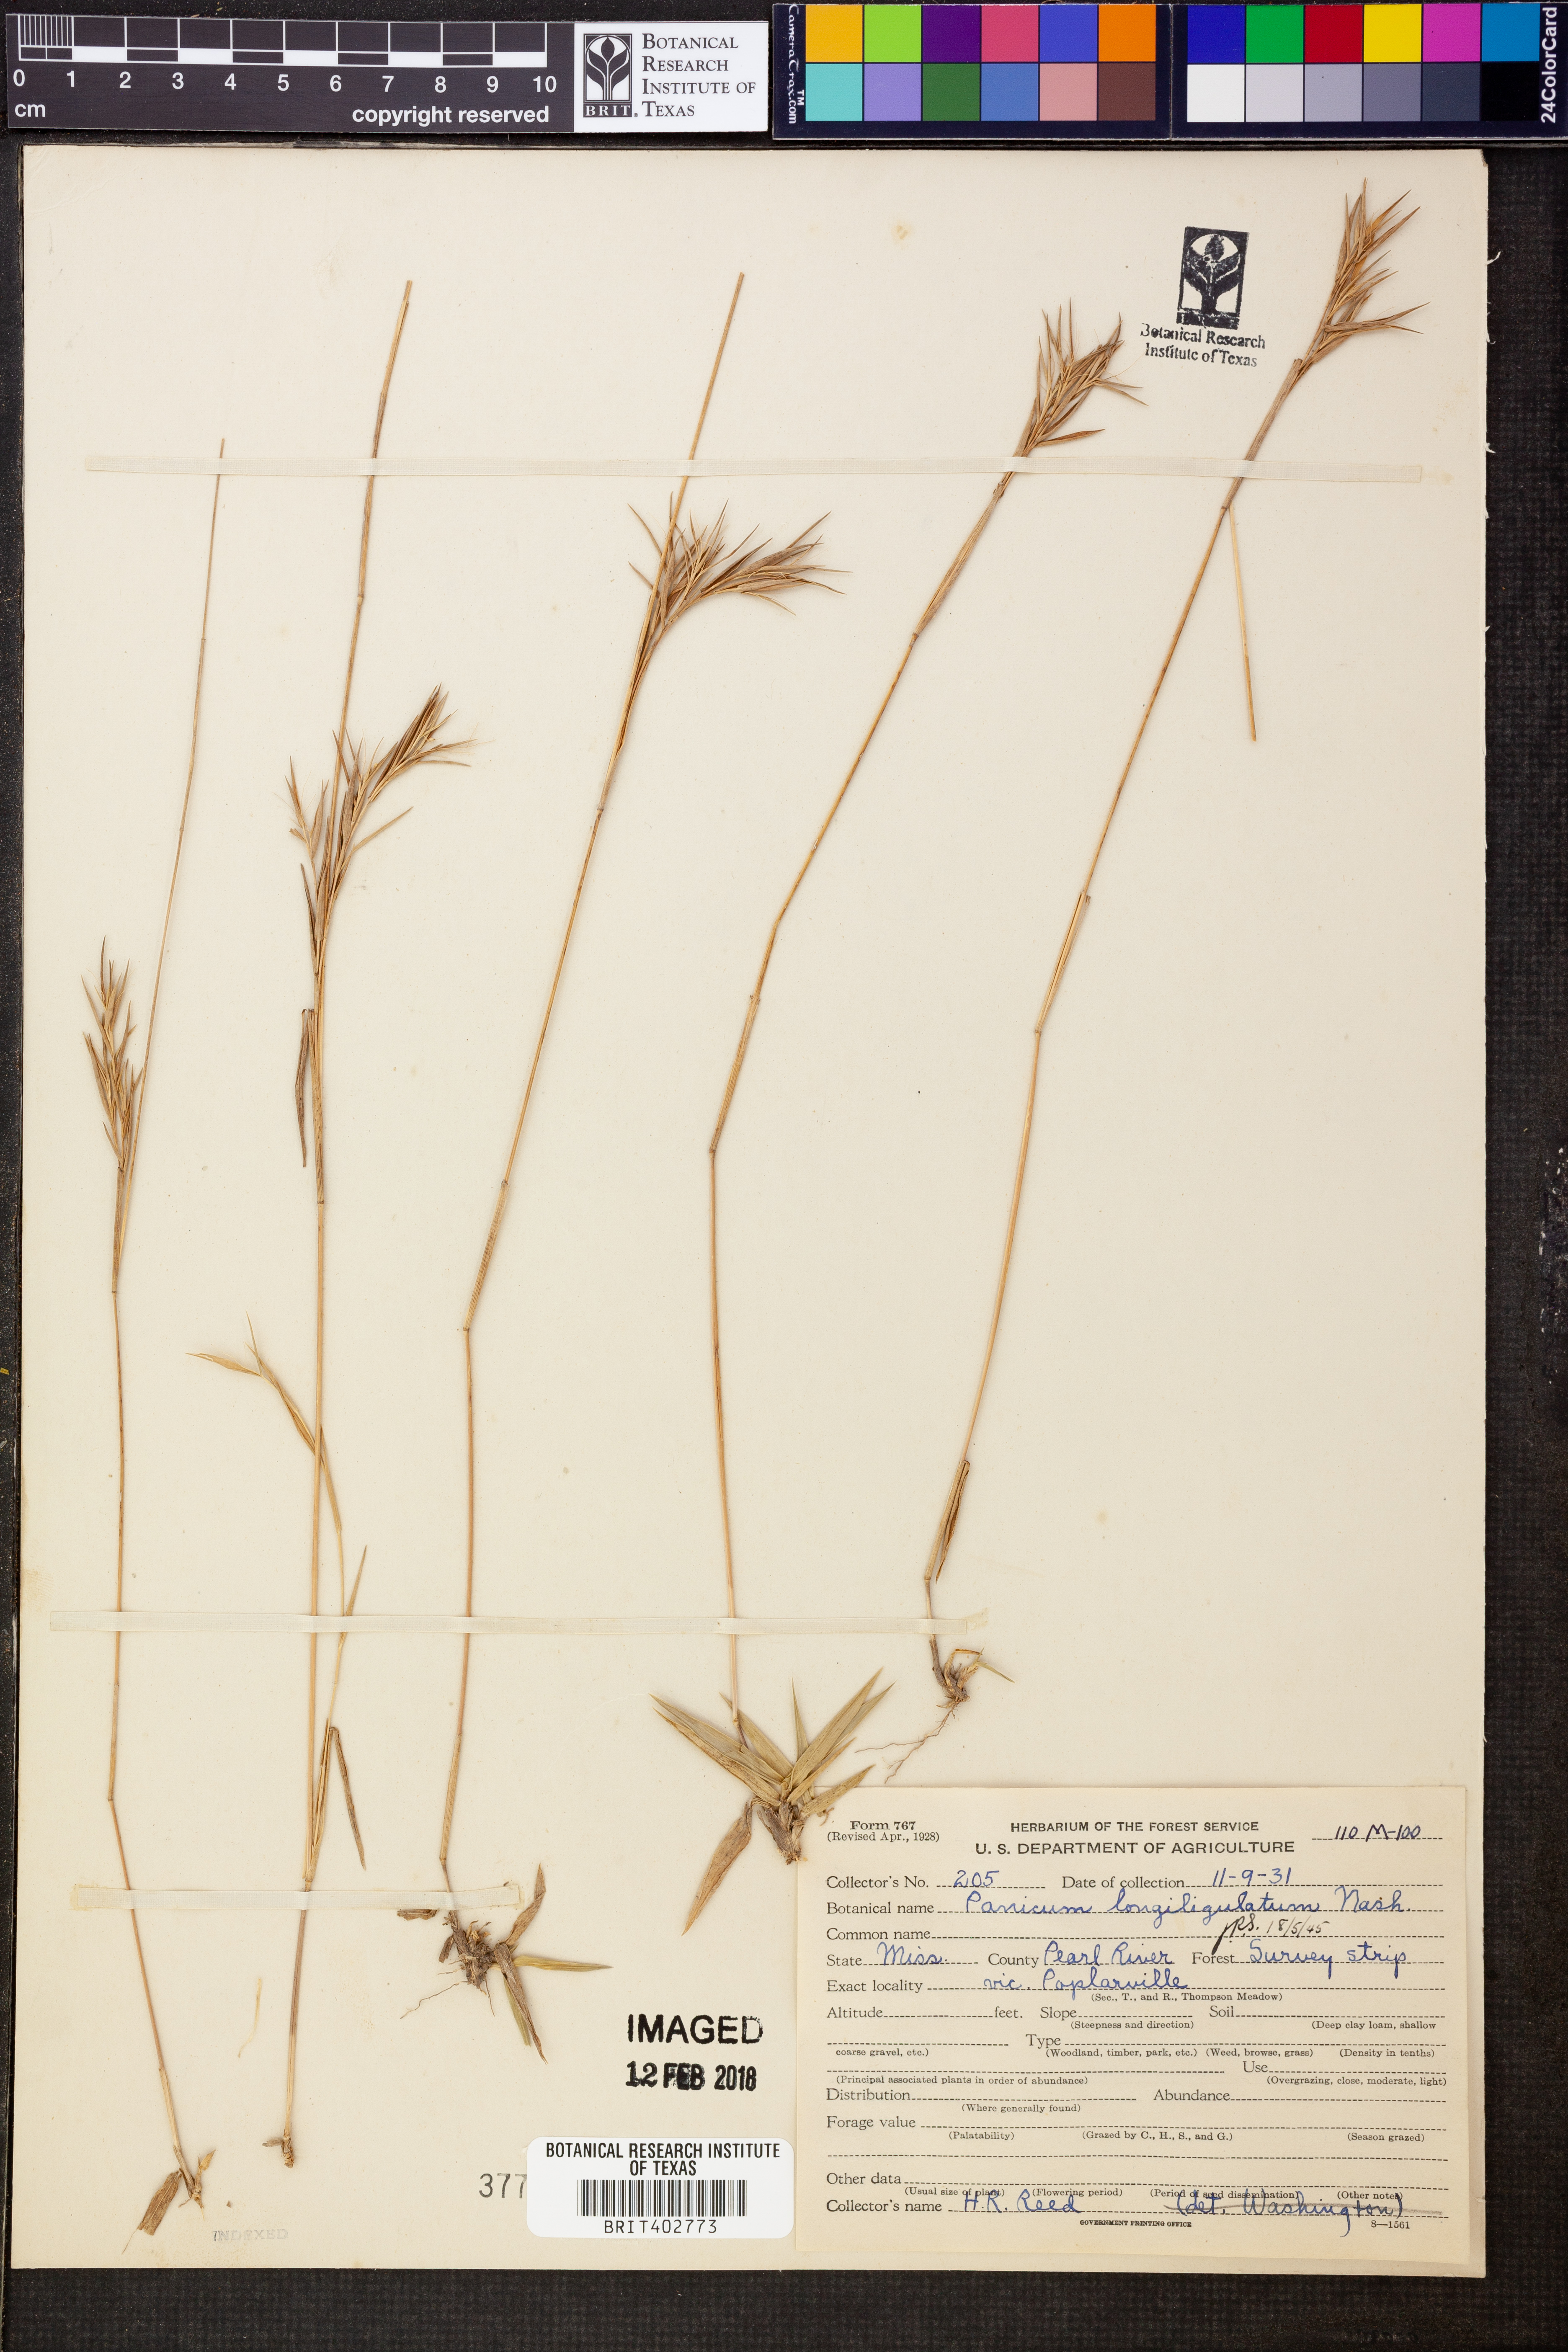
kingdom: Plantae
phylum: Tracheophyta
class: Liliopsida
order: Poales
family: Poaceae
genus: Dichanthelium
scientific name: Dichanthelium longiligulatum
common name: Long-ligule panicgrass
